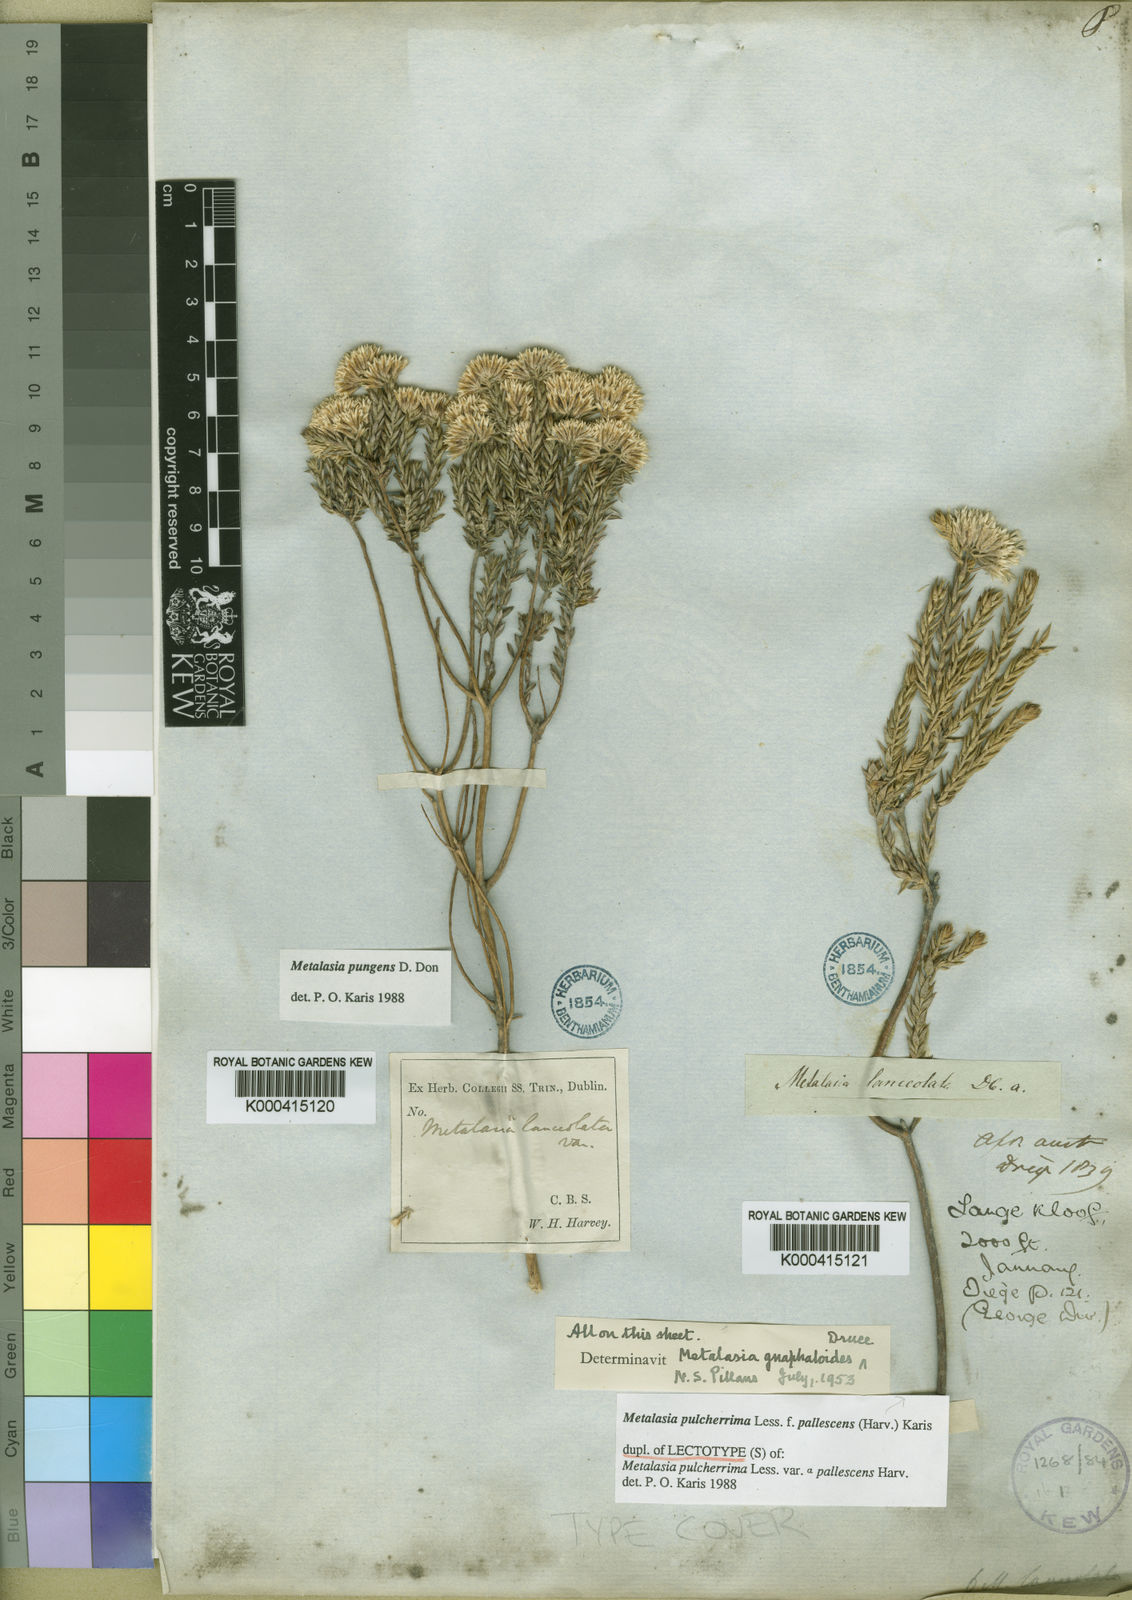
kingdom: Plantae
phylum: Tracheophyta
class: Magnoliopsida
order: Asterales
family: Asteraceae
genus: Metalasia
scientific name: Metalasia pulcherrima
